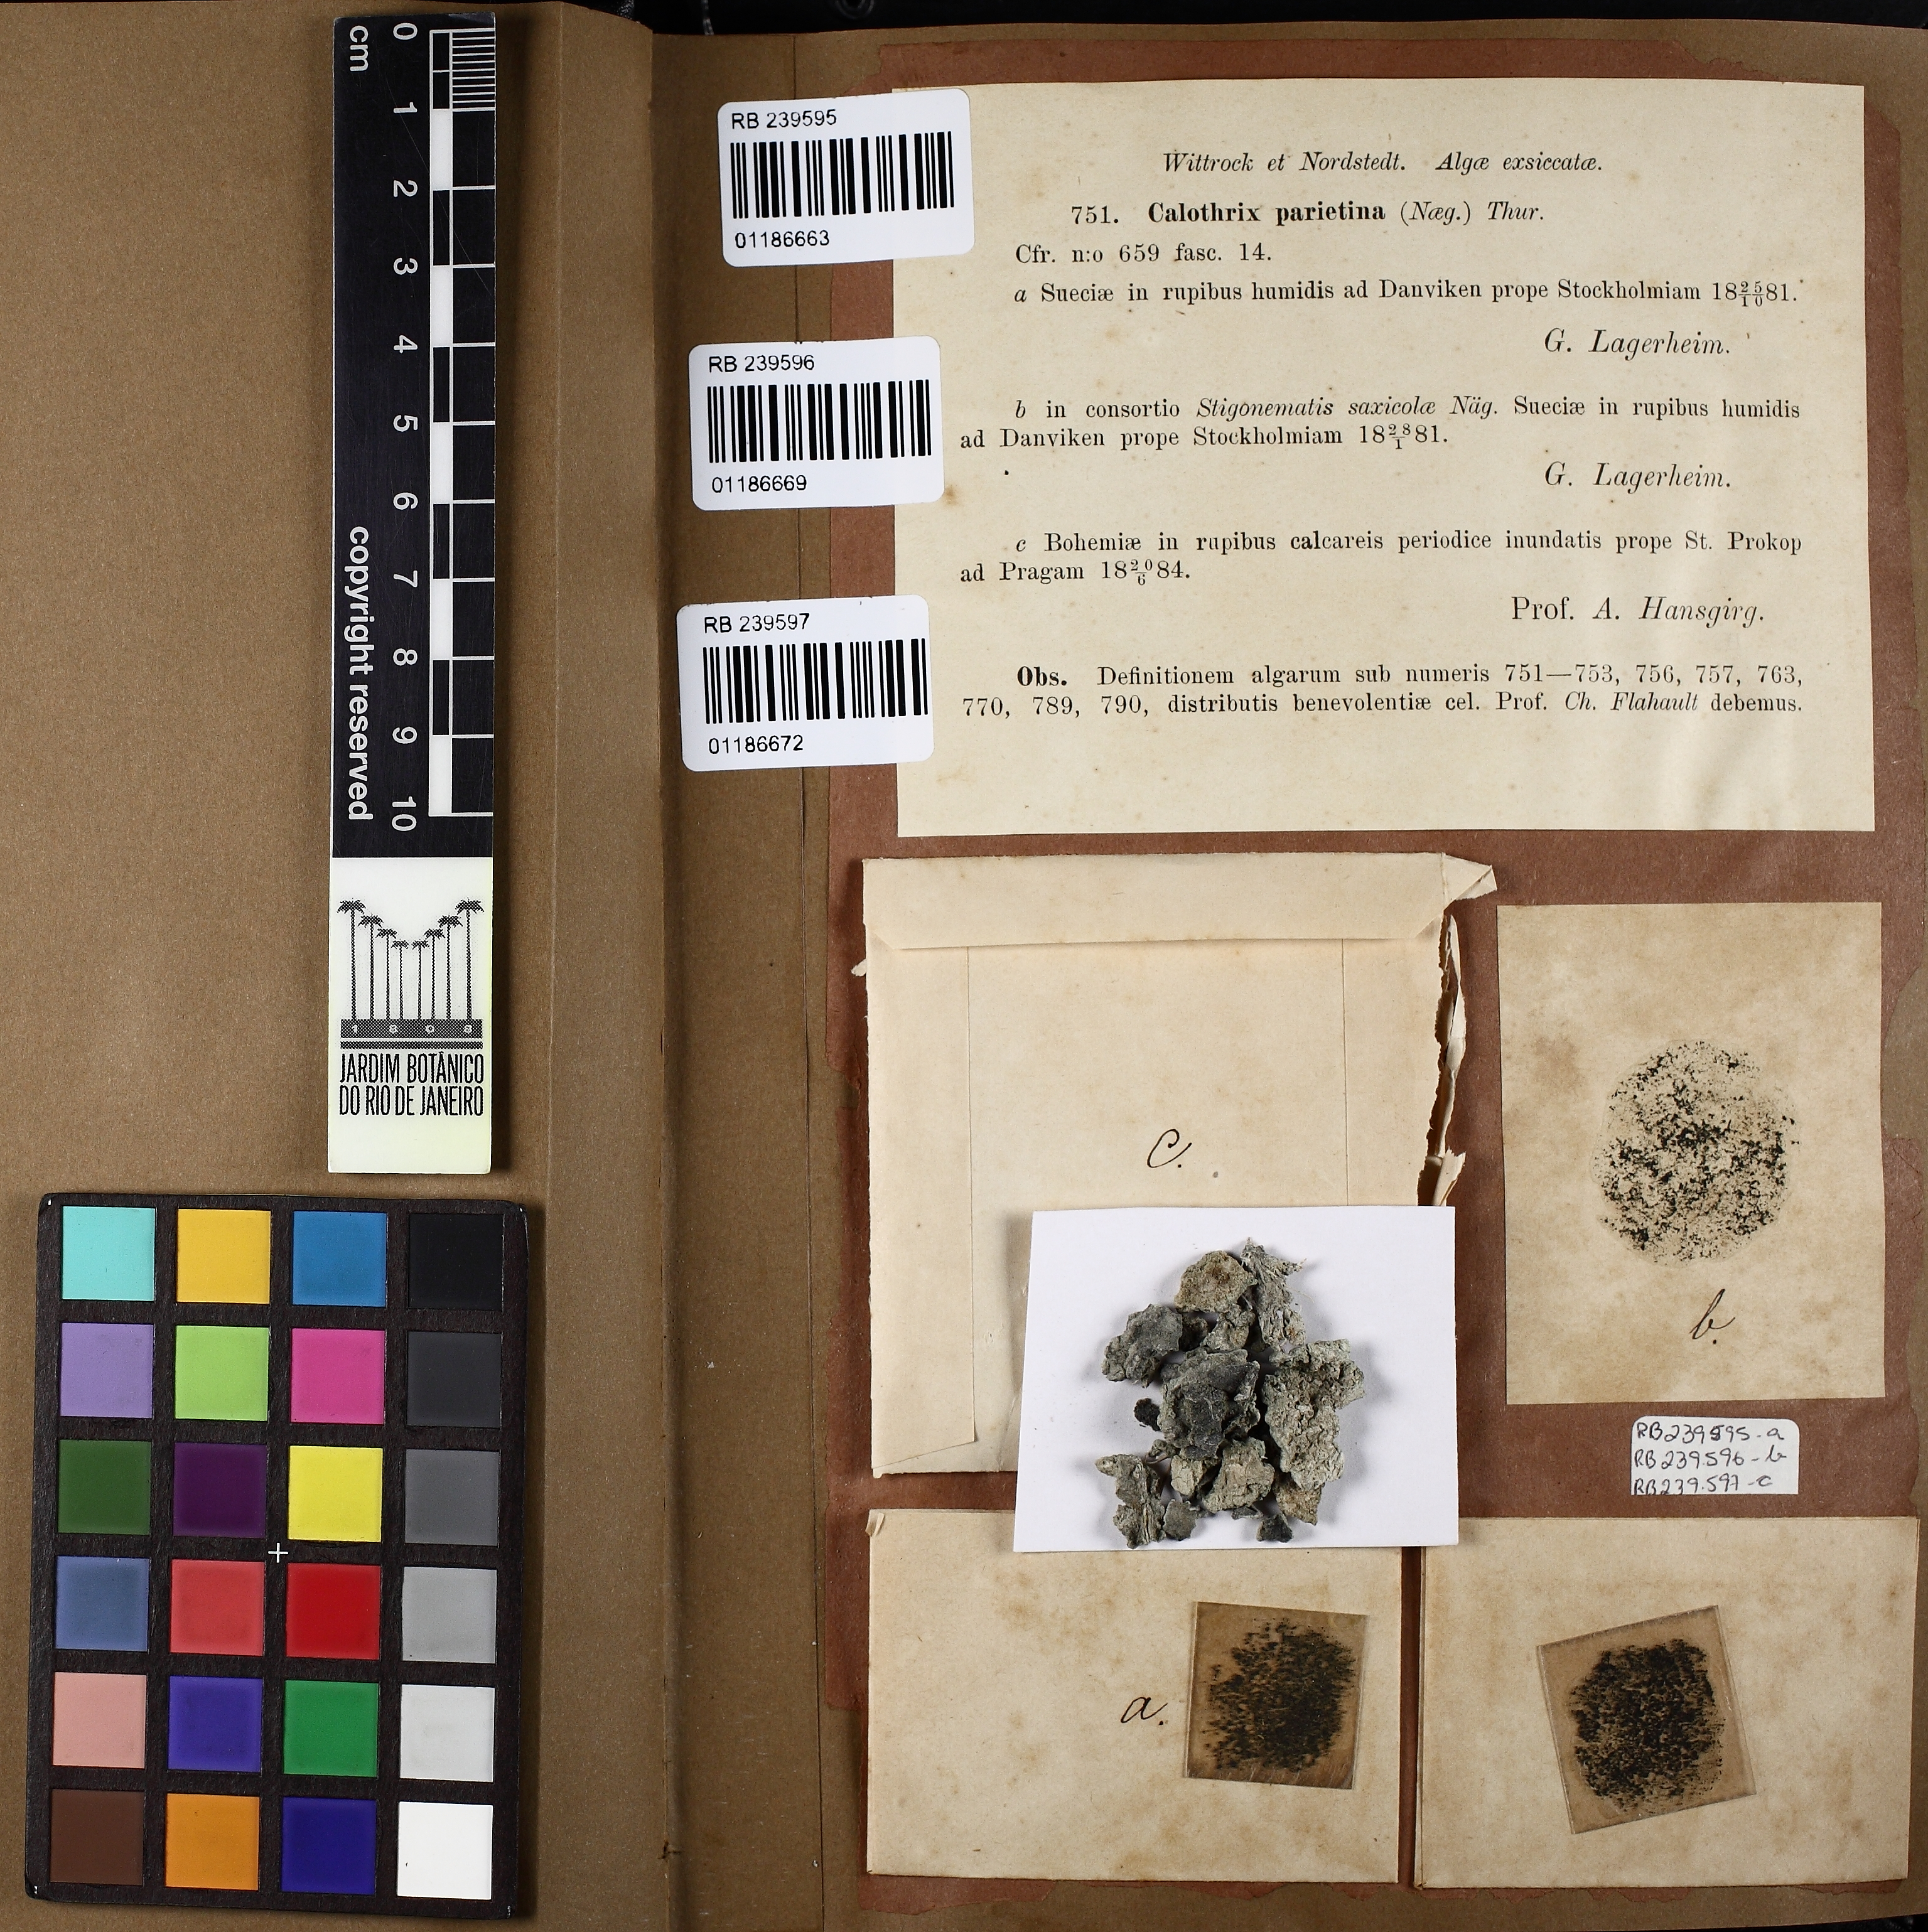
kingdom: Bacteria
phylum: Cyanobacteria
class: Cyanobacteriia
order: Cyanobacteriales
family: Nostocaceae
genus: Calothrix
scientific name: Calothrix parietina
